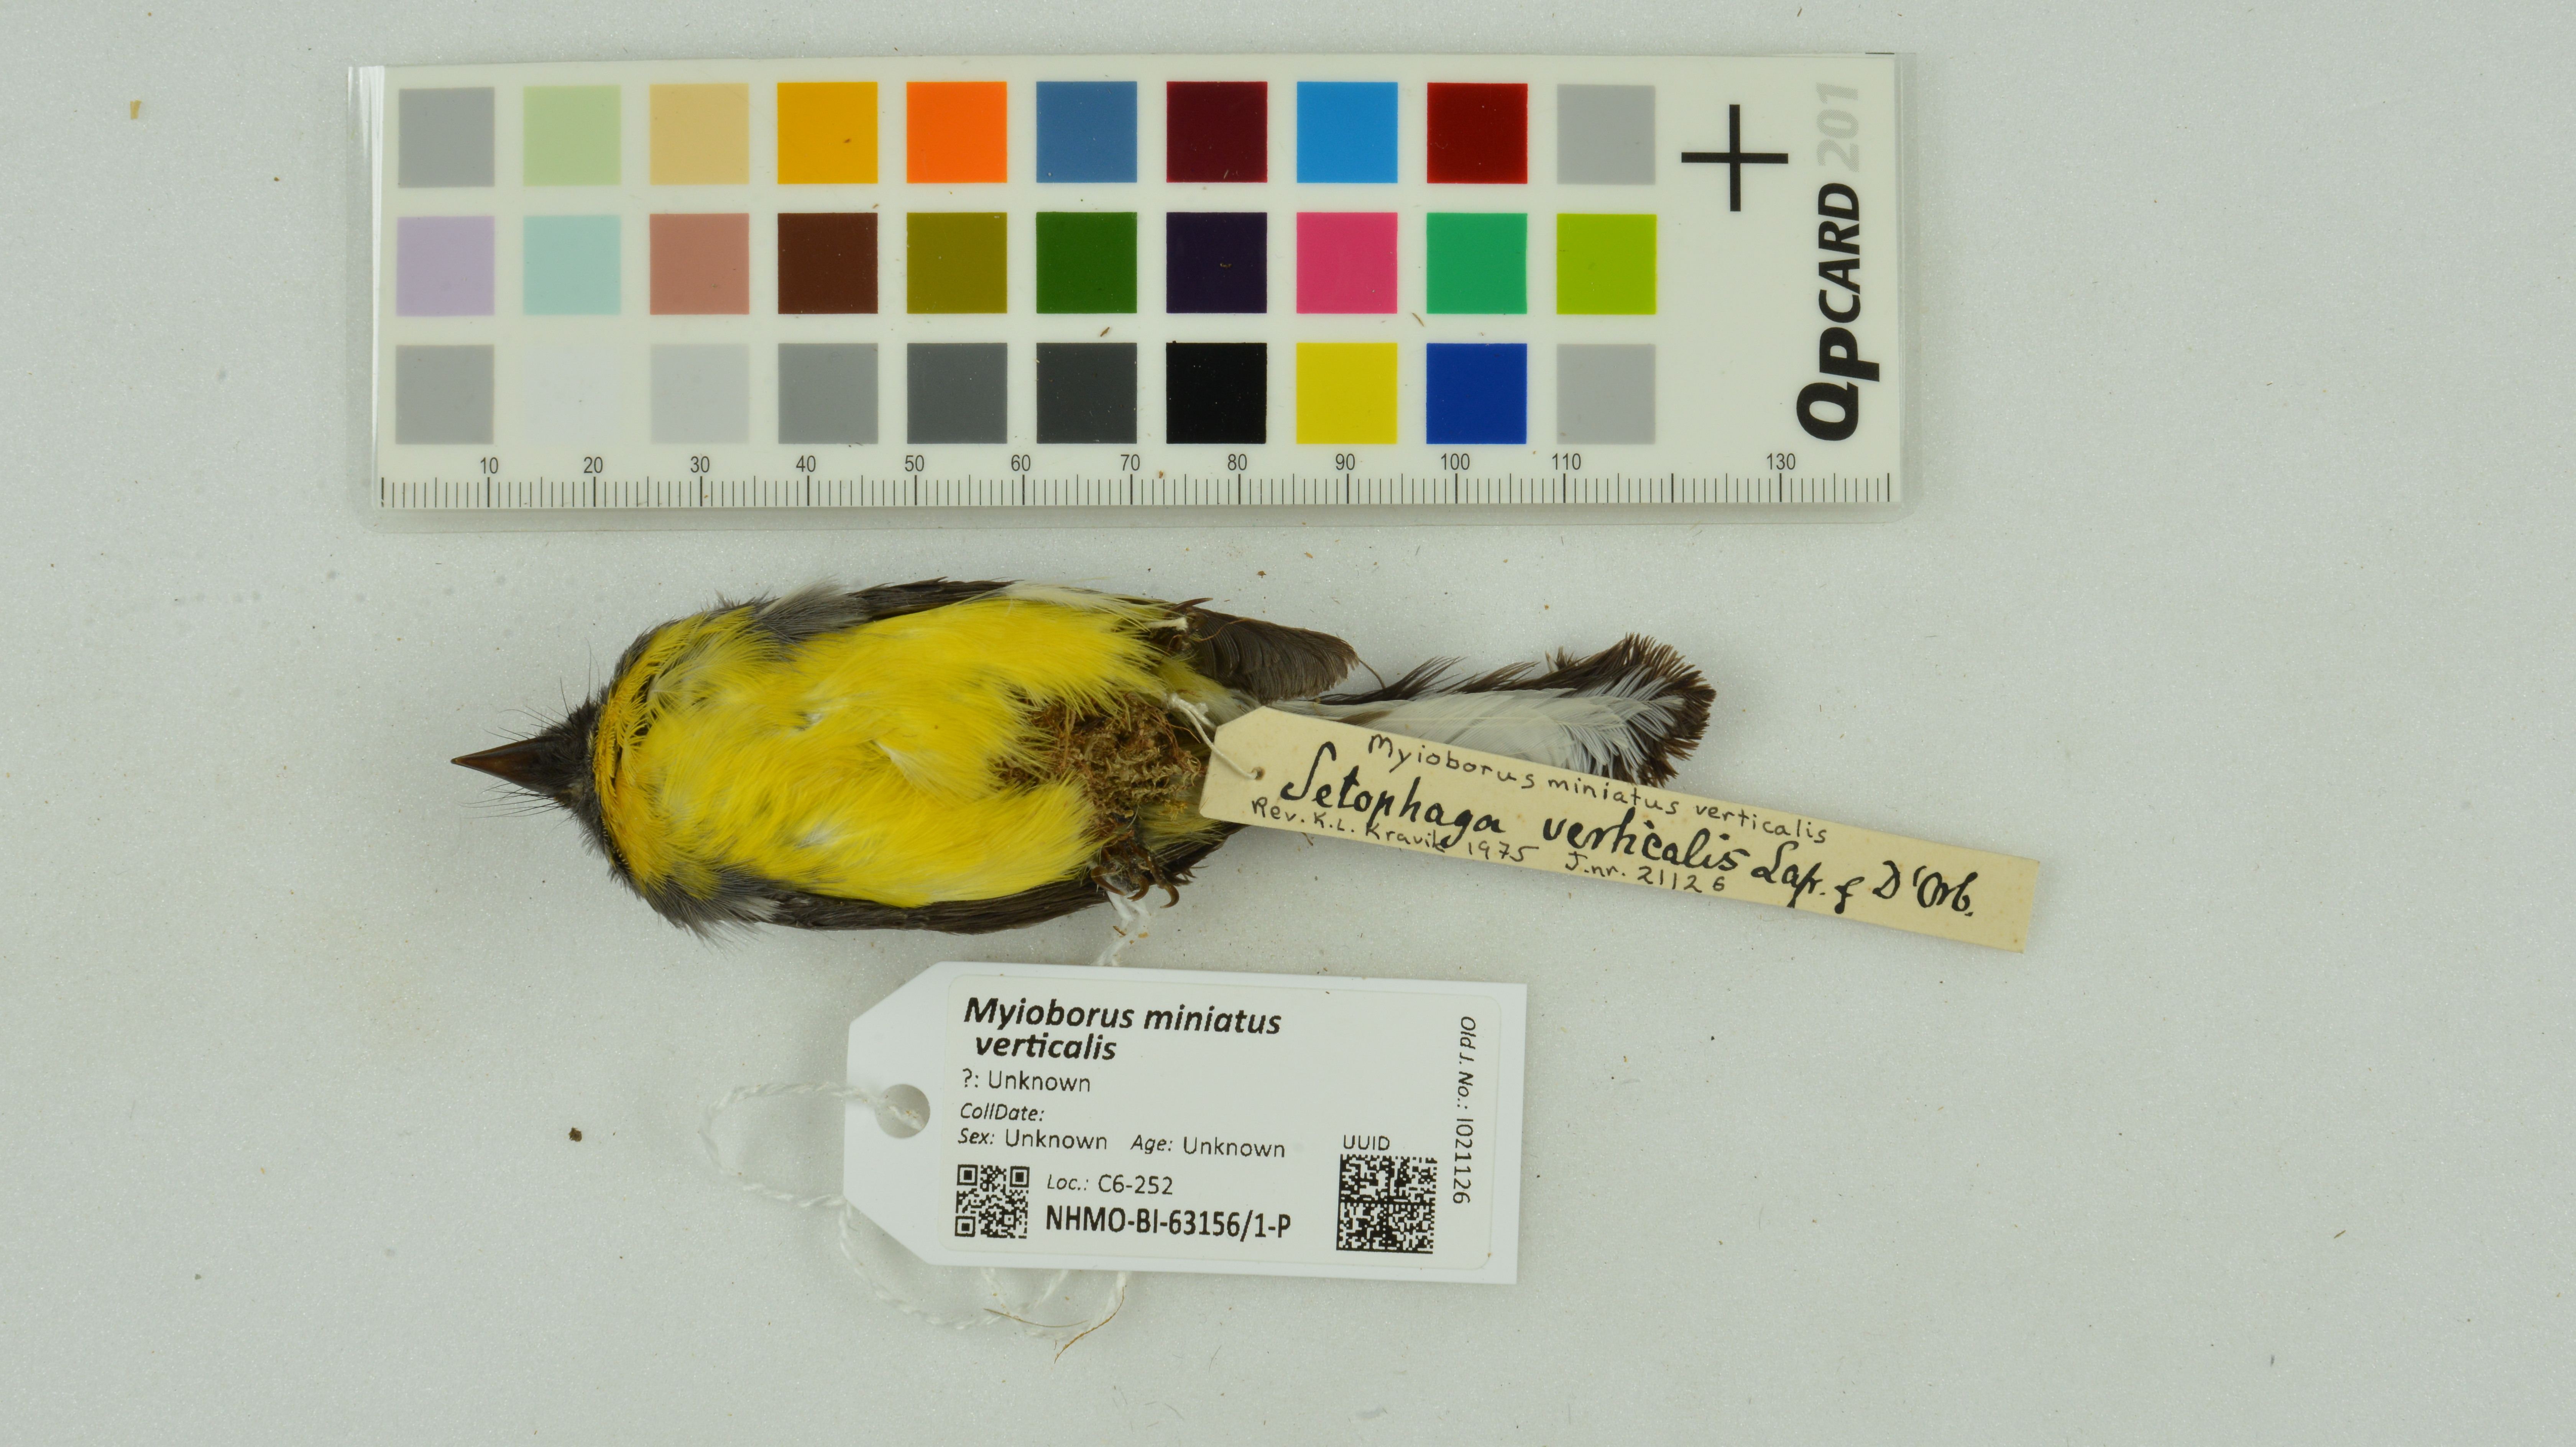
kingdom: Animalia
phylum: Chordata
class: Aves
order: Passeriformes
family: Parulidae
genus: Myioborus
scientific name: Myioborus miniatus
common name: Slate-throated redstart
